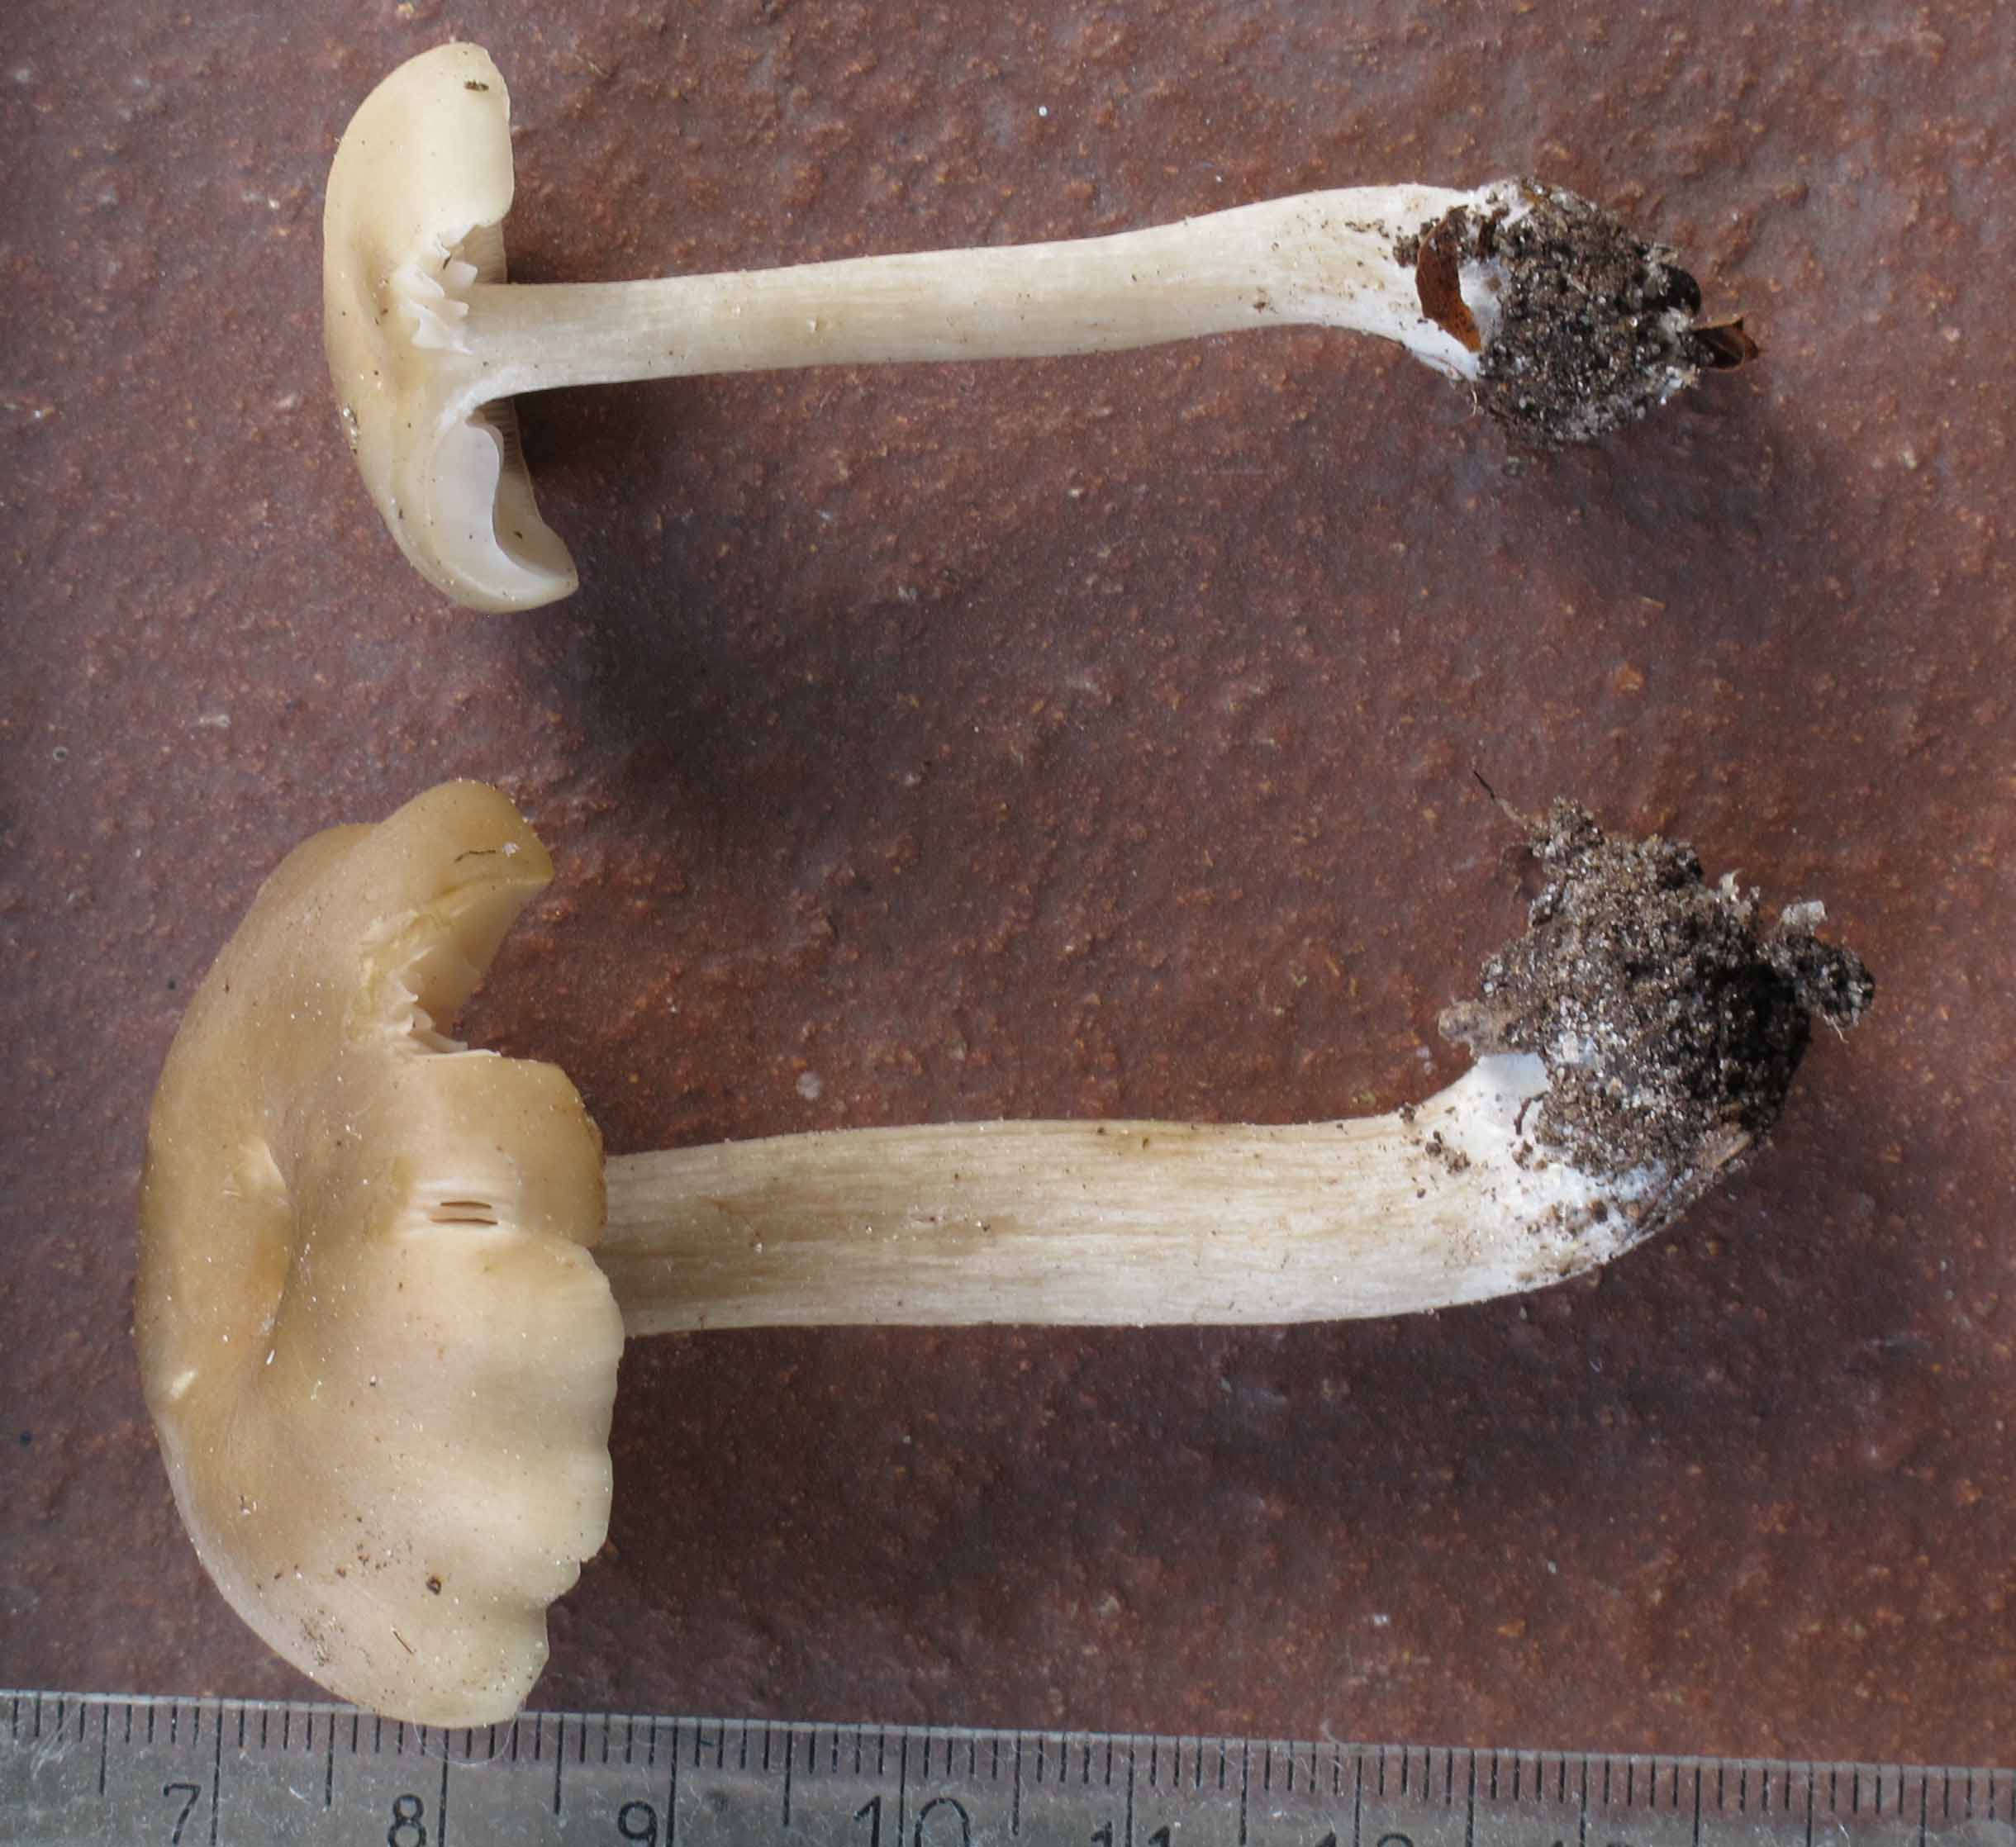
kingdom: Fungi
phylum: Basidiomycota
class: Agaricomycetes
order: Agaricales
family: Entolomataceae
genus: Entoloma
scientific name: Entoloma rhodopolium
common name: skov-rødblad
